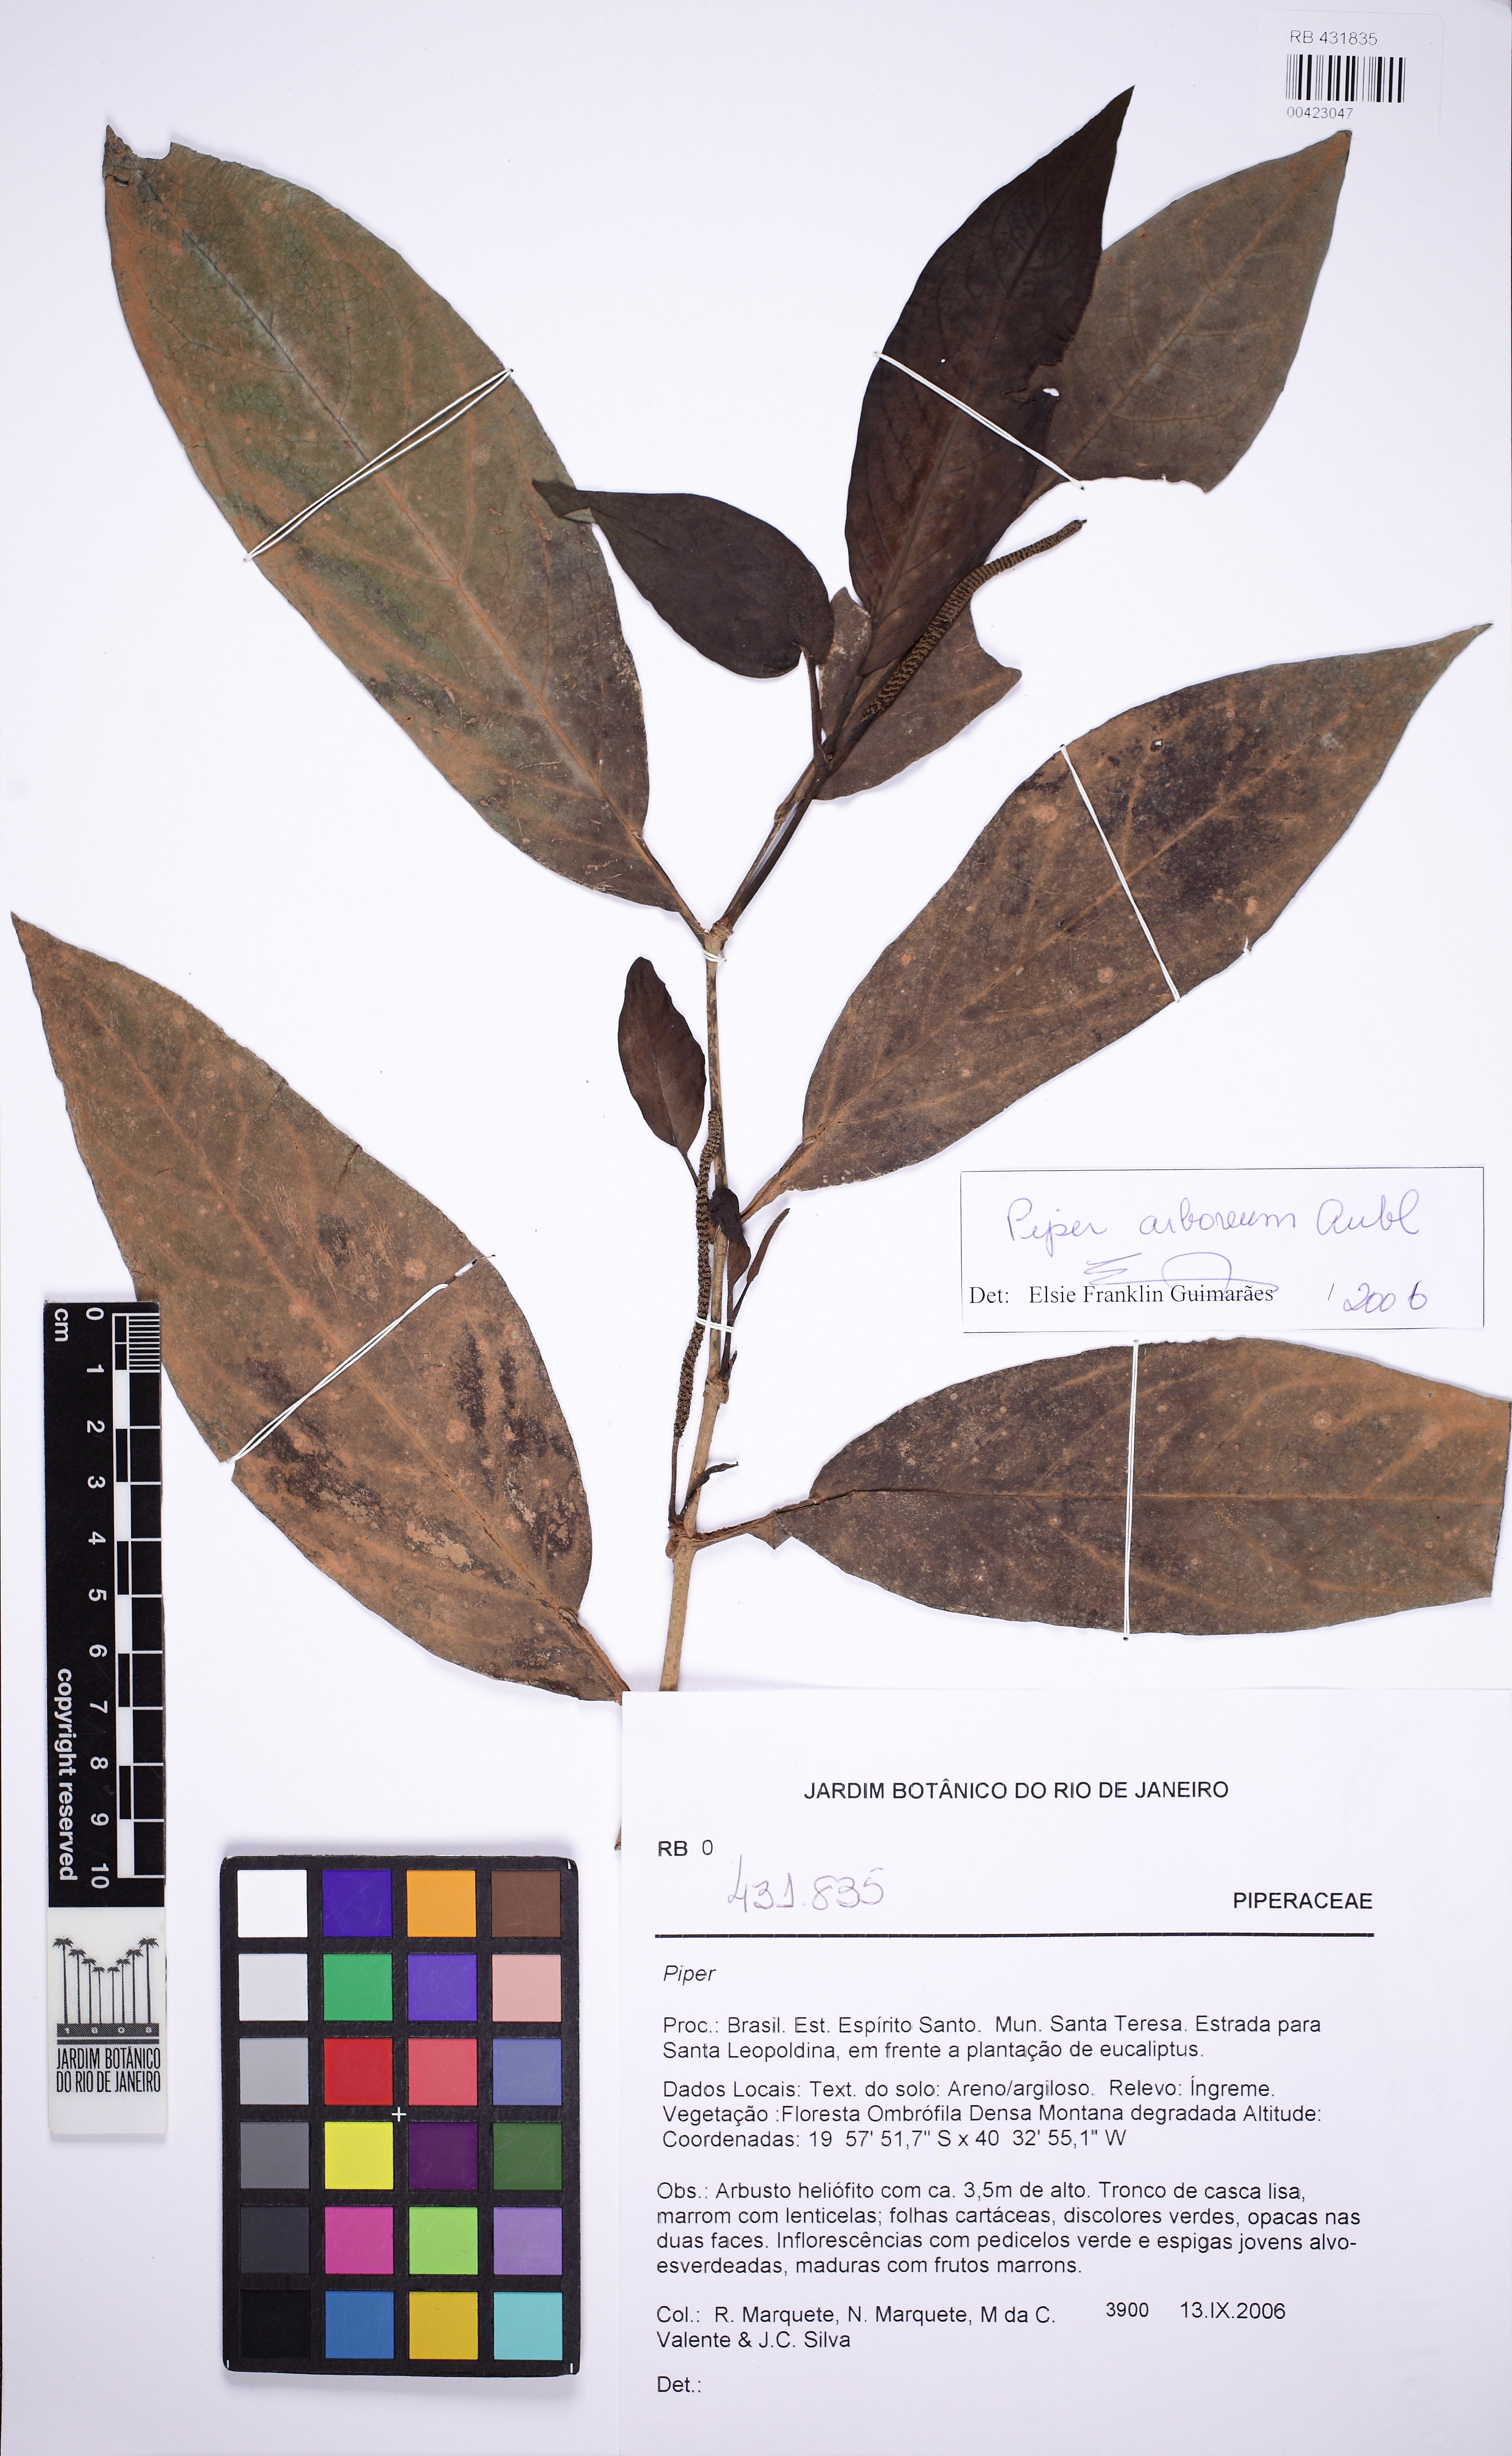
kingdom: Plantae
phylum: Tracheophyta
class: Magnoliopsida
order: Piperales
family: Piperaceae
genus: Piper
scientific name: Piper arboreum
